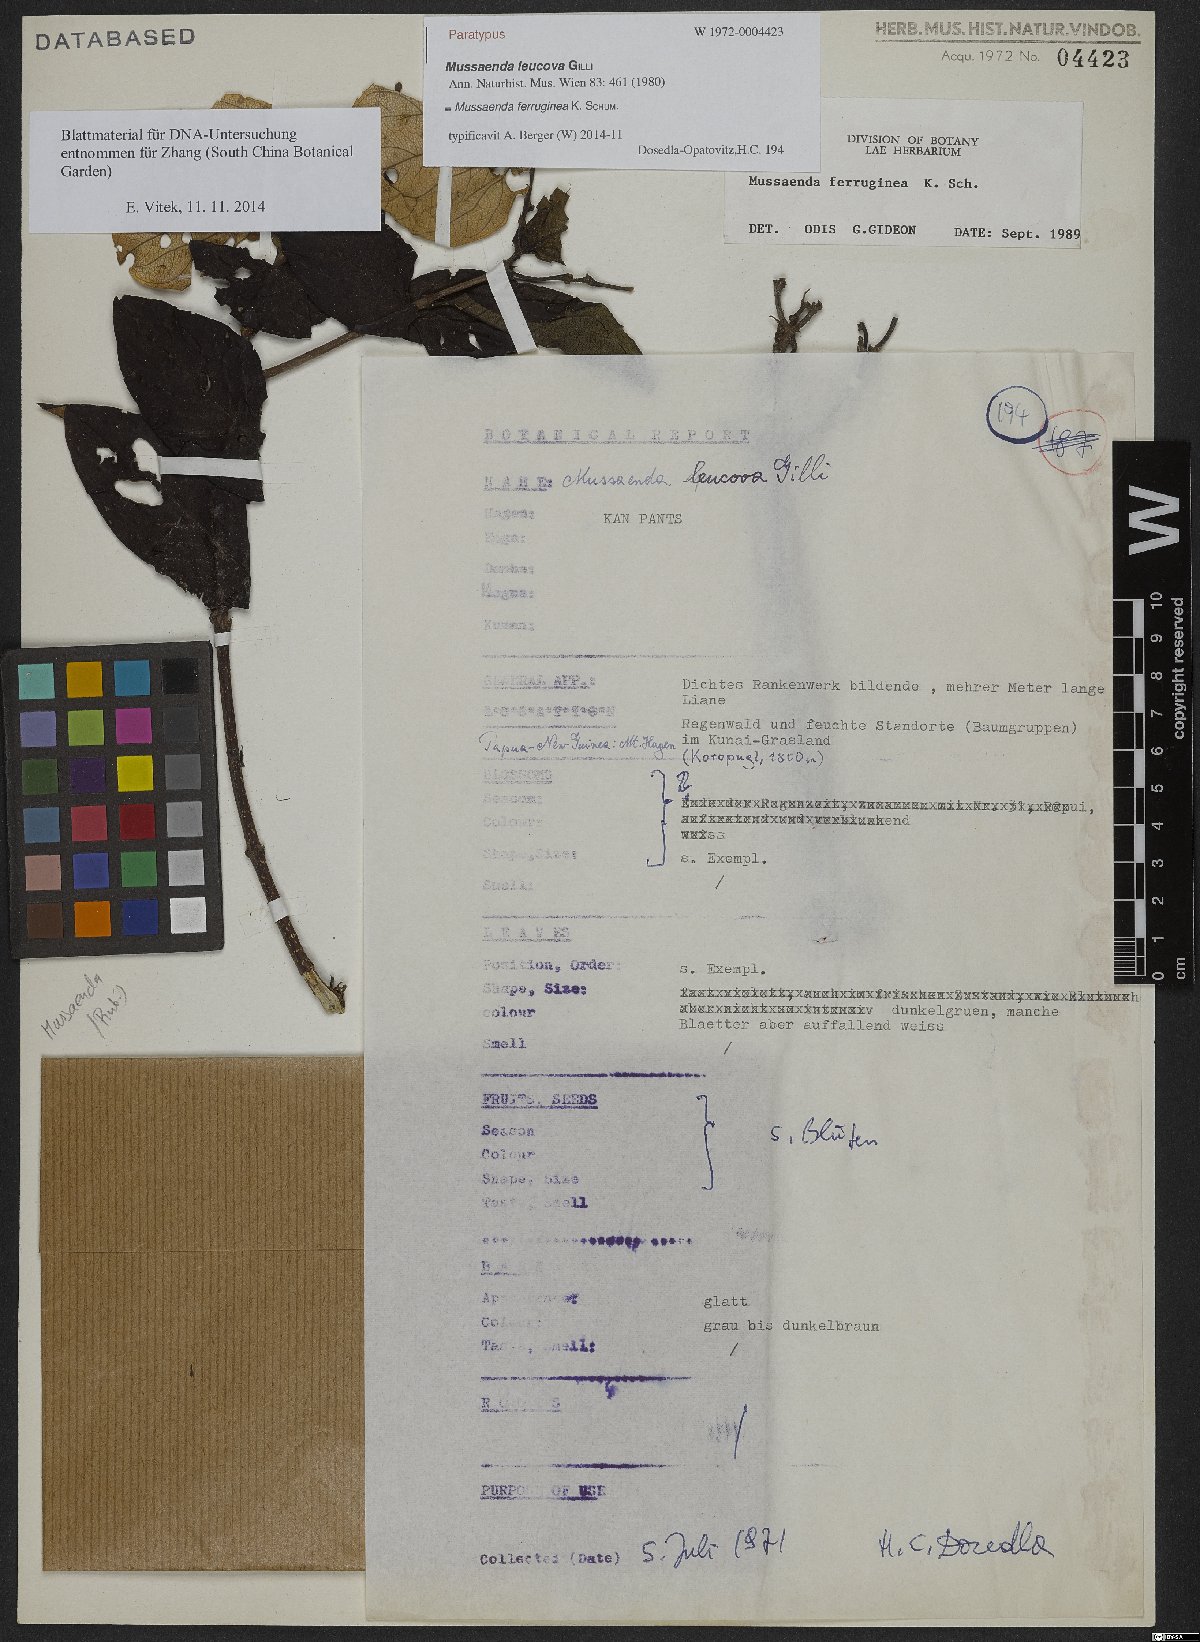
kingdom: Plantae
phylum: Tracheophyta
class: Magnoliopsida
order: Gentianales
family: Rubiaceae
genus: Mussaenda
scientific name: Mussaenda ferruginea
